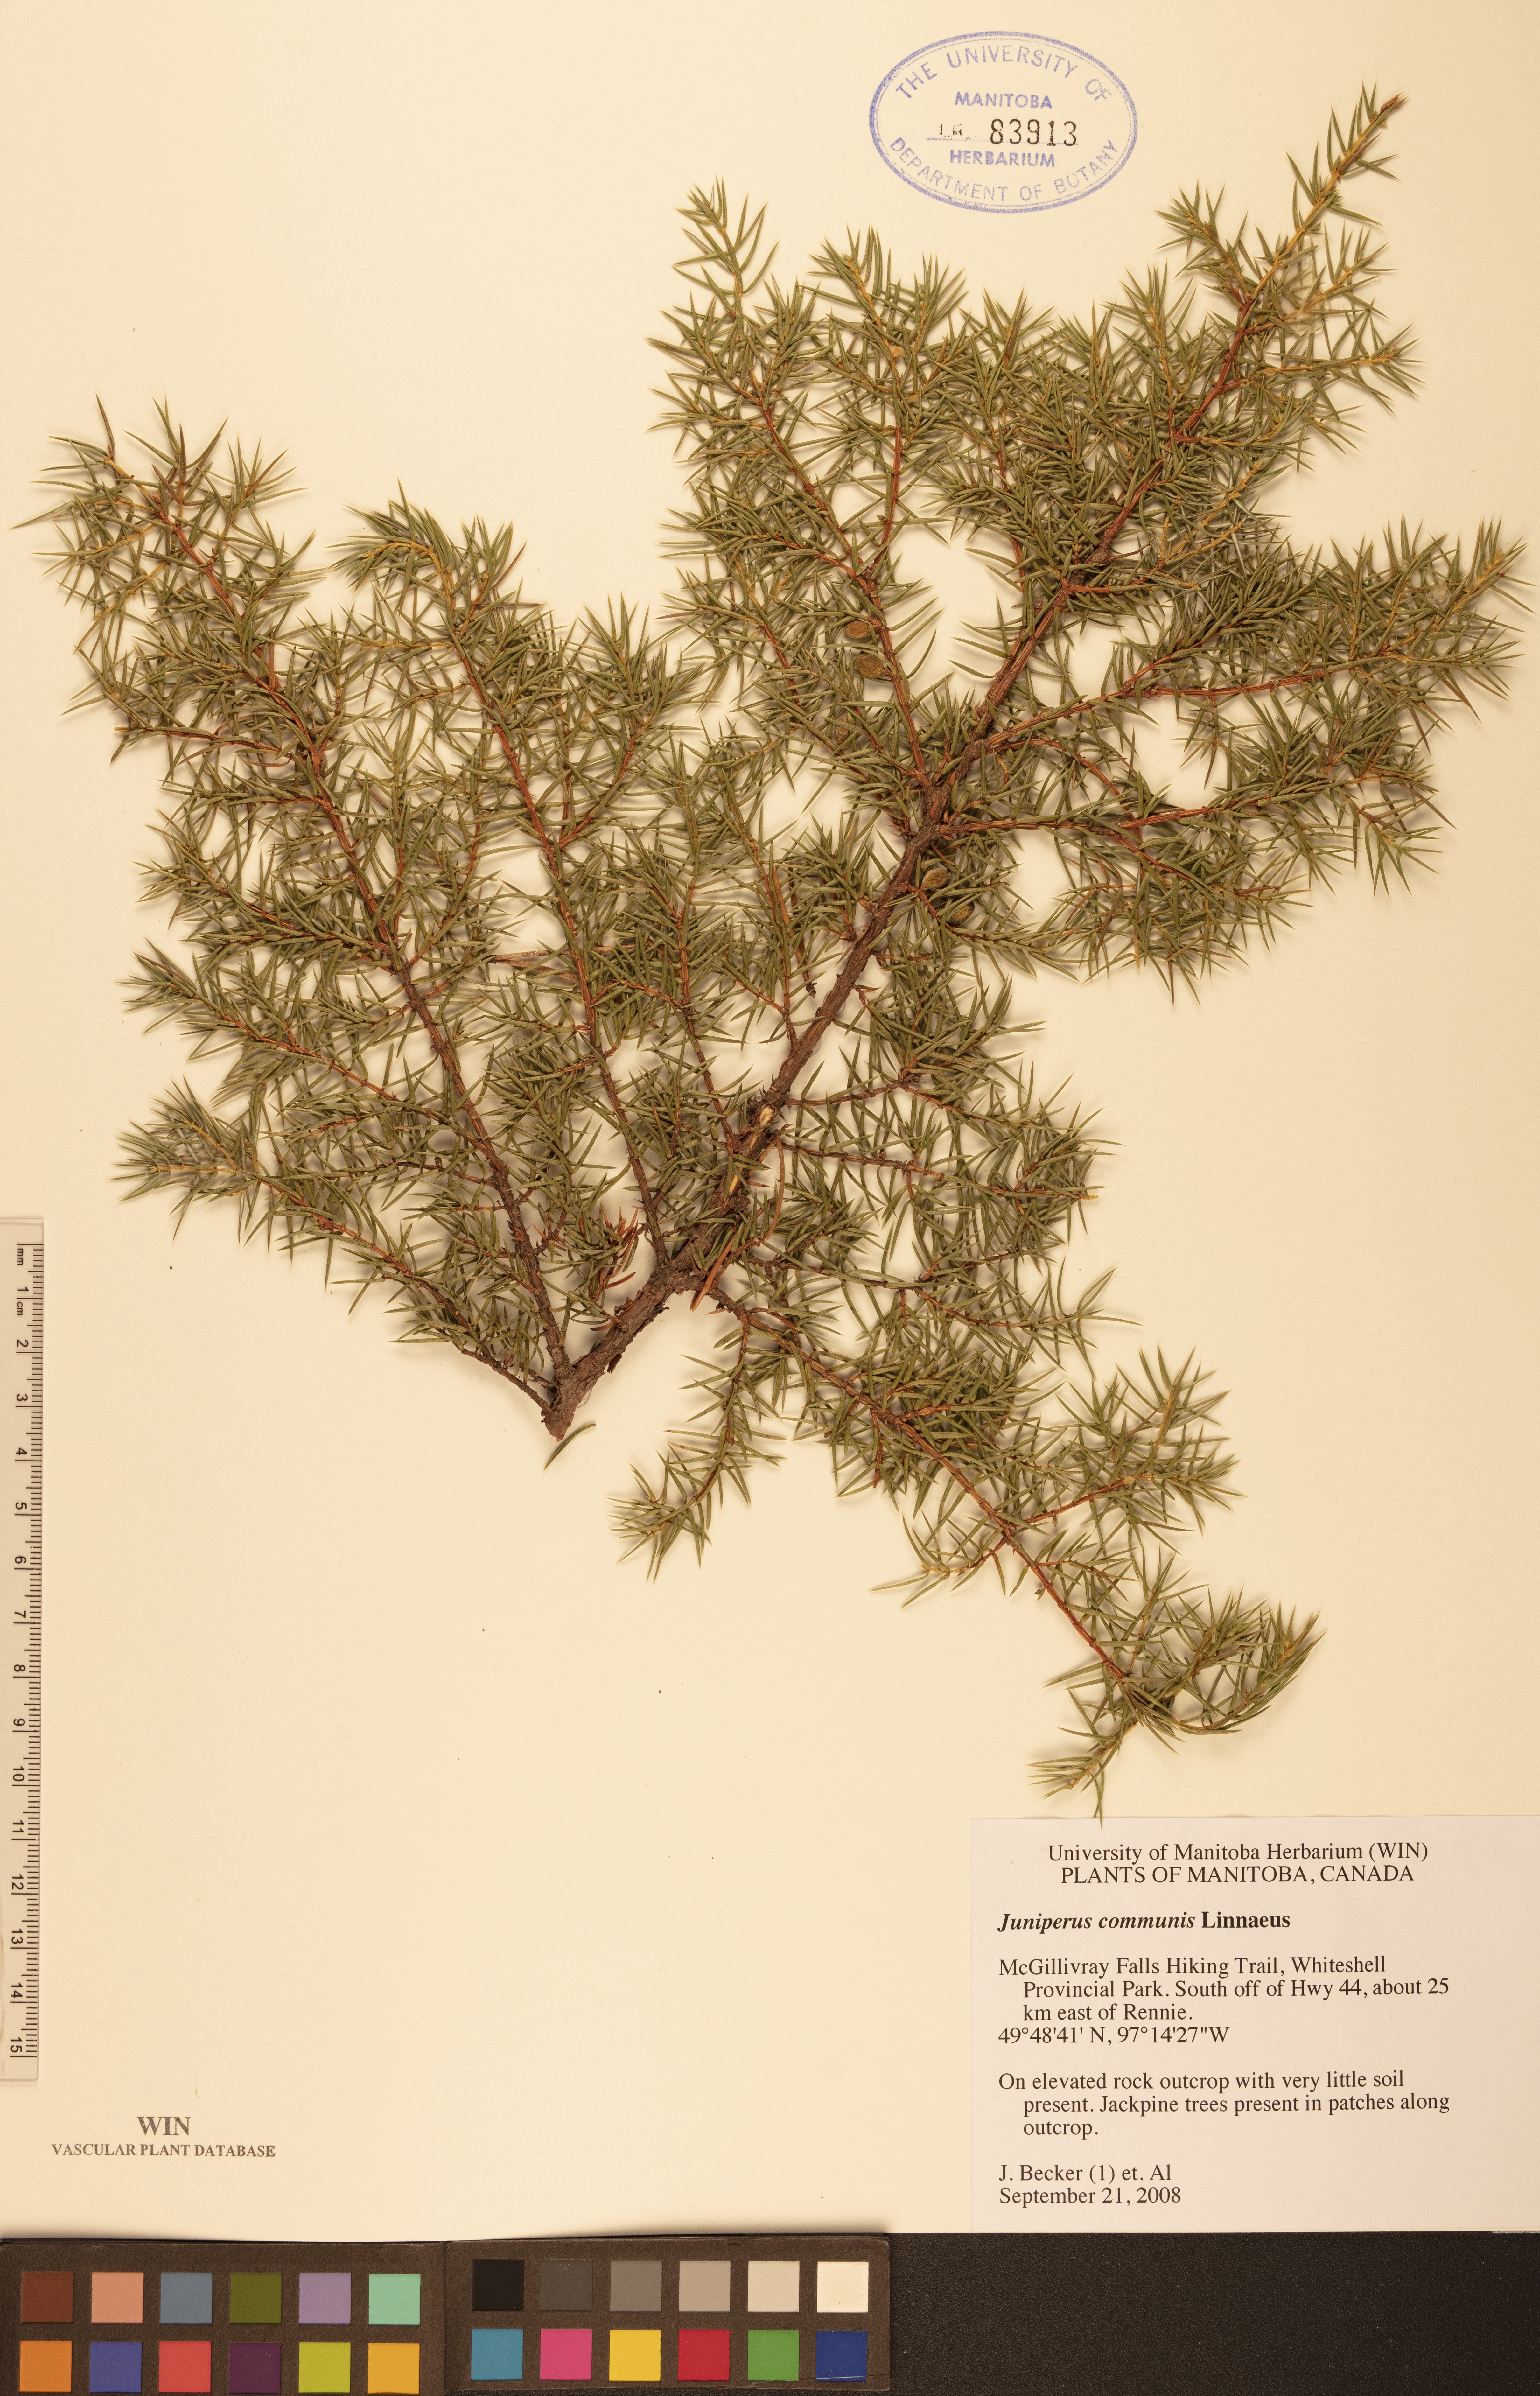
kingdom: Plantae
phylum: Tracheophyta
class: Pinopsida
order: Pinales
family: Cupressaceae
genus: Juniperus
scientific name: Juniperus communis
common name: Common juniper
